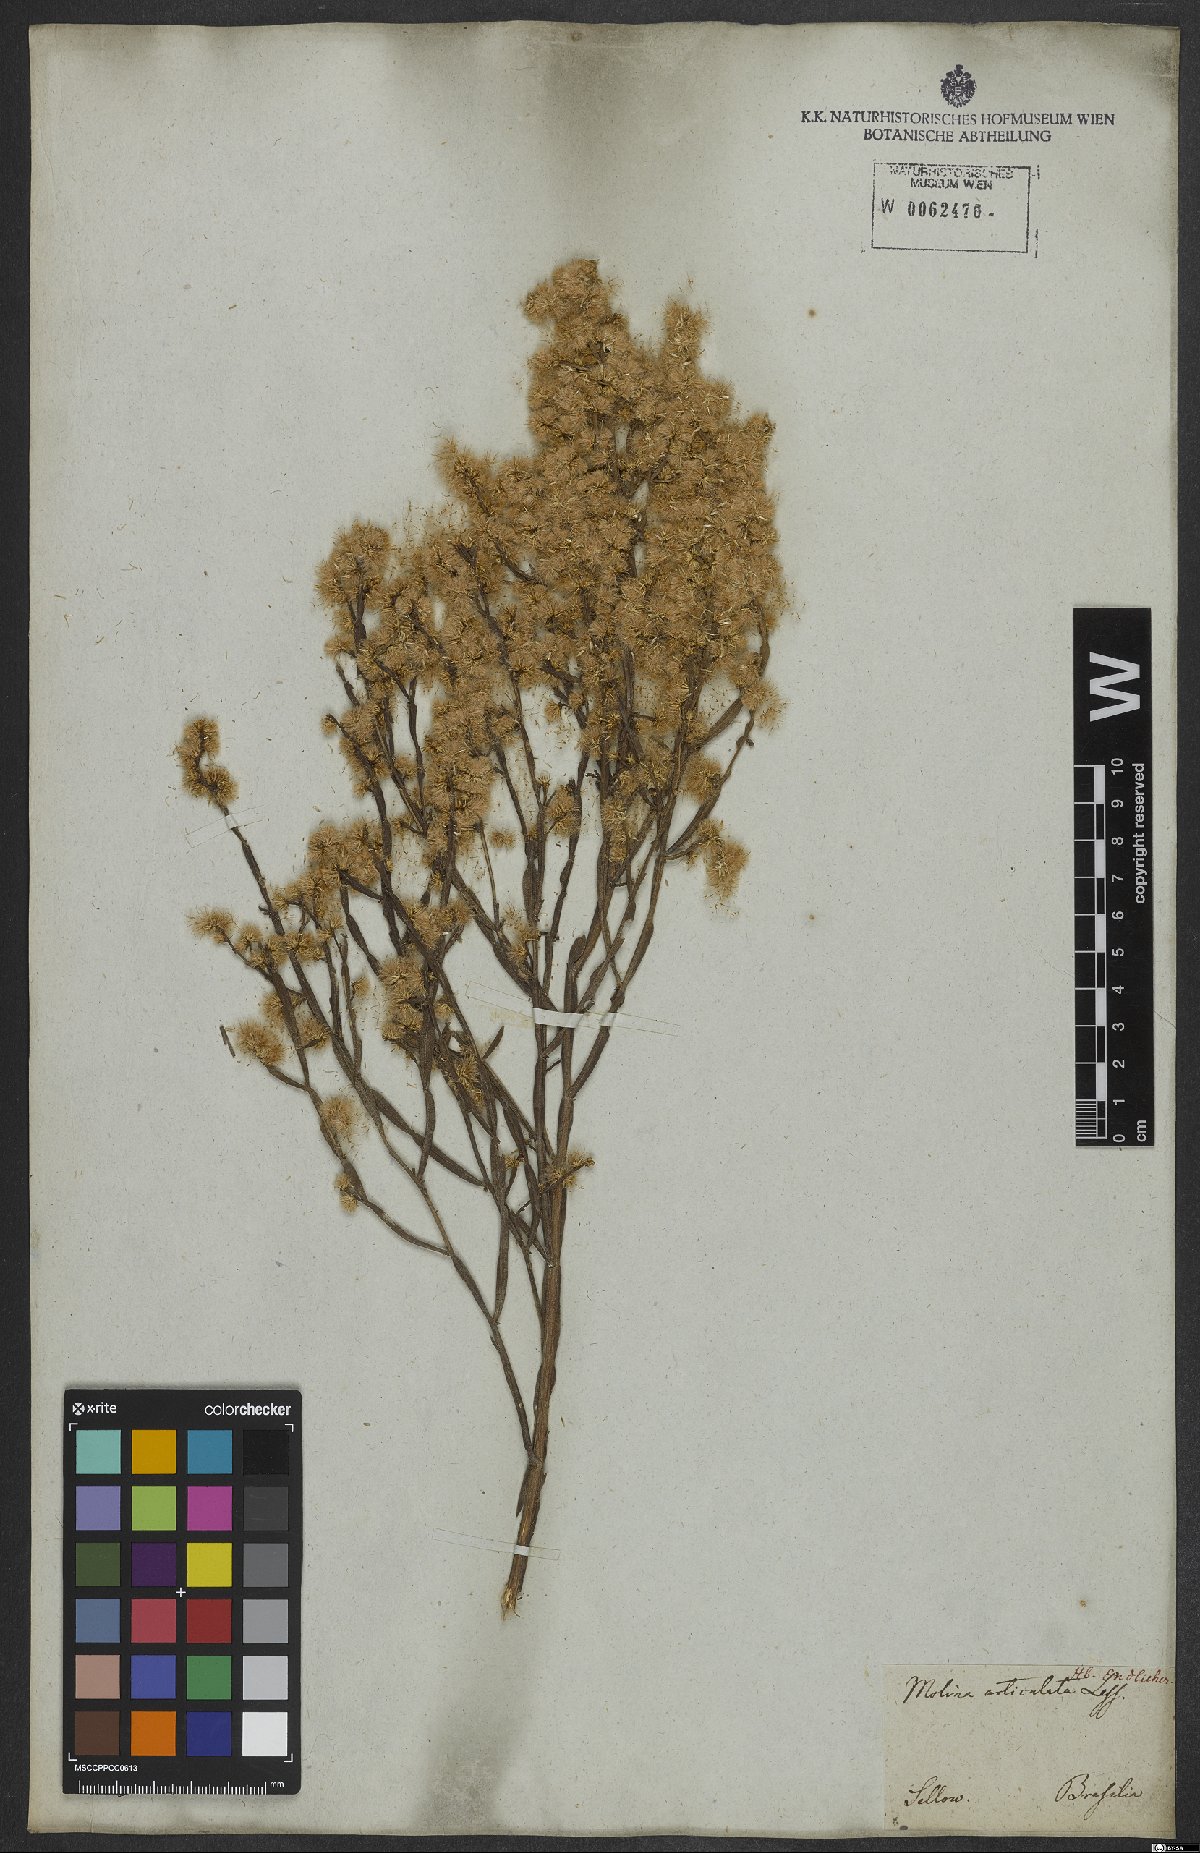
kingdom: Plantae
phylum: Tracheophyta
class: Magnoliopsida
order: Asterales
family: Asteraceae
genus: Baccharis
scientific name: Baccharis articulata
